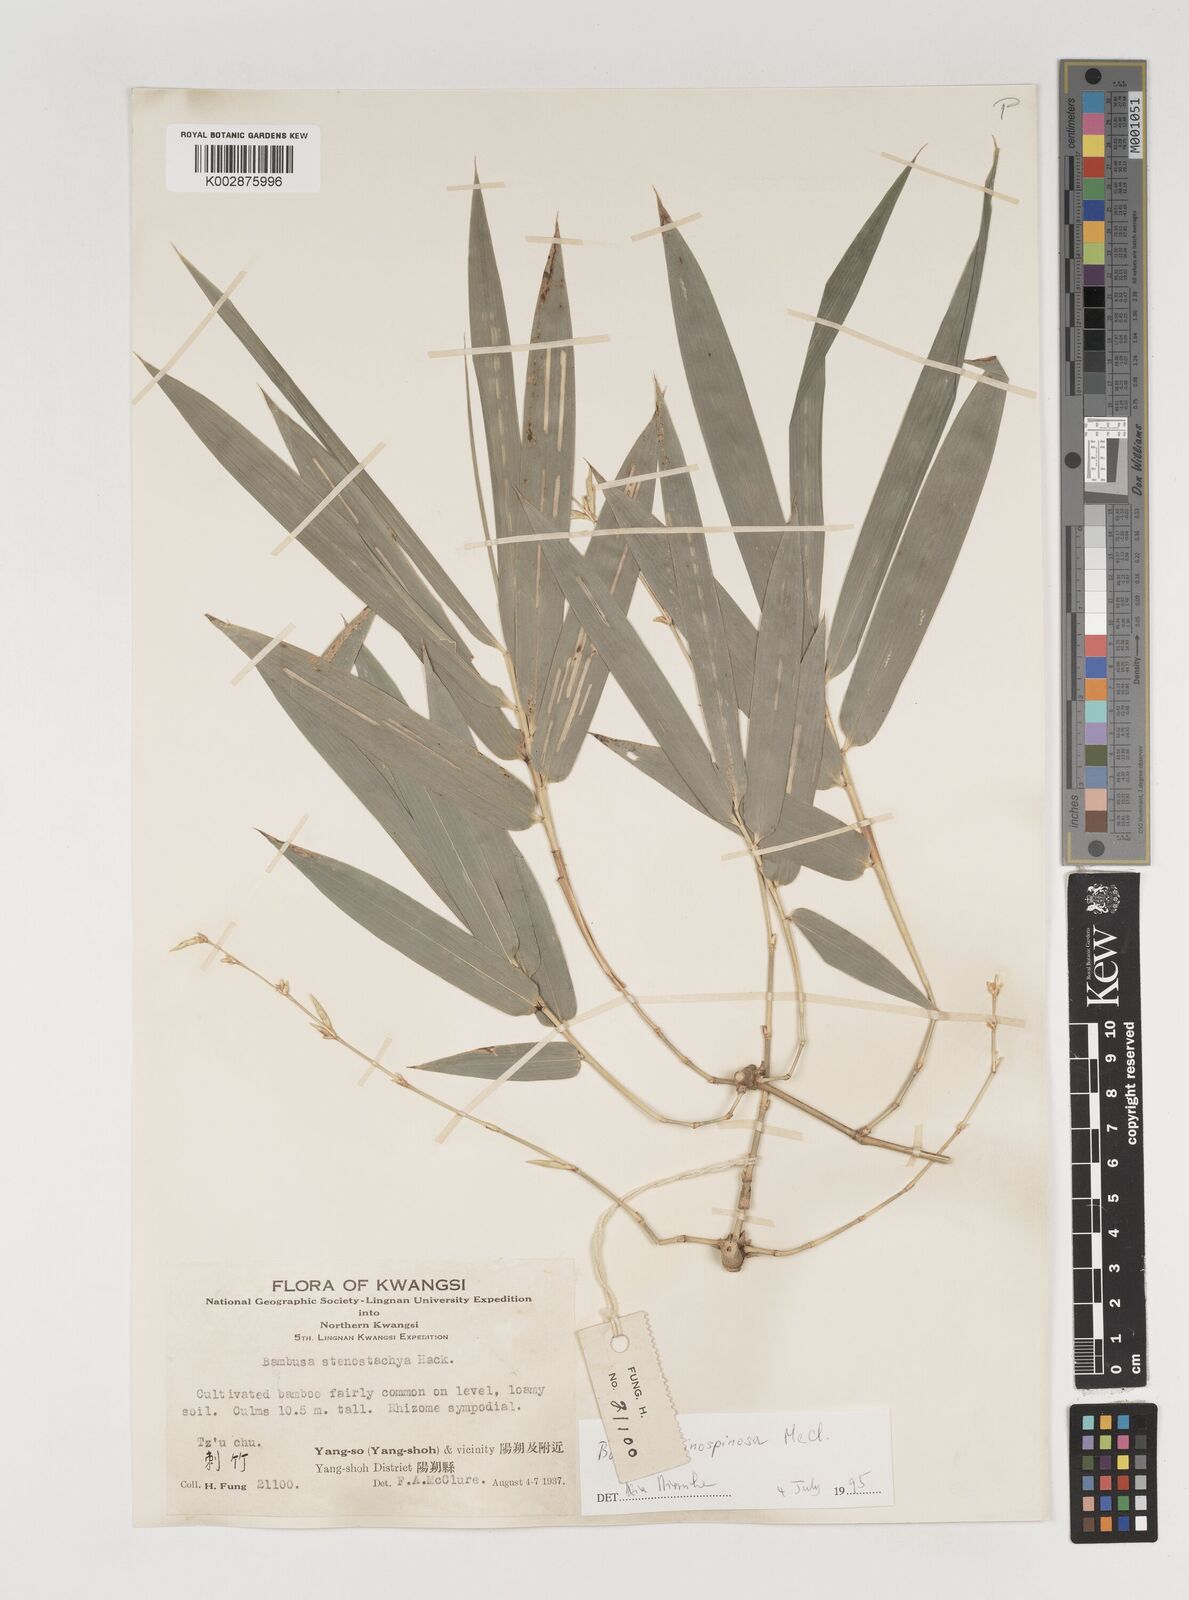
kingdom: Plantae
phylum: Tracheophyta
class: Liliopsida
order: Poales
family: Poaceae
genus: Bambusa
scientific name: Bambusa sinospinosa
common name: Spiny bamboo
